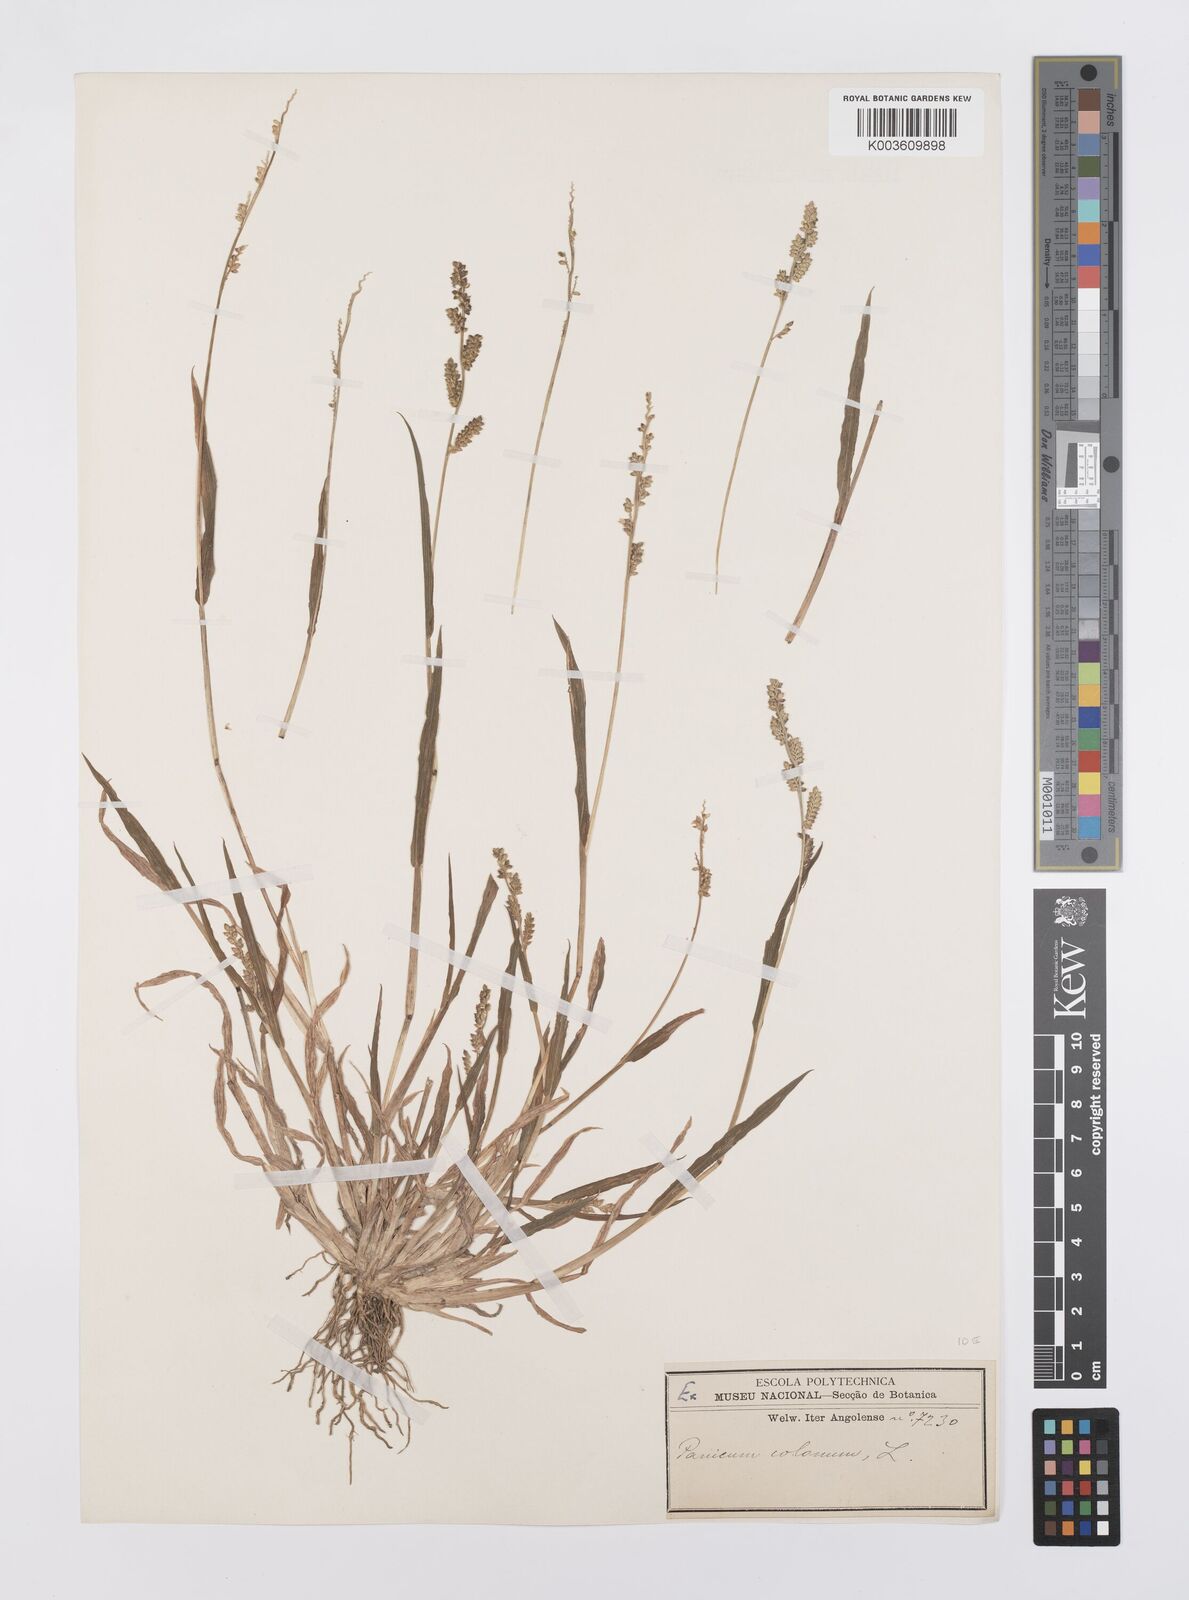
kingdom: Plantae
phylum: Tracheophyta
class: Liliopsida
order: Poales
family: Poaceae
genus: Echinochloa
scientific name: Echinochloa colonum
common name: Jungle rice
